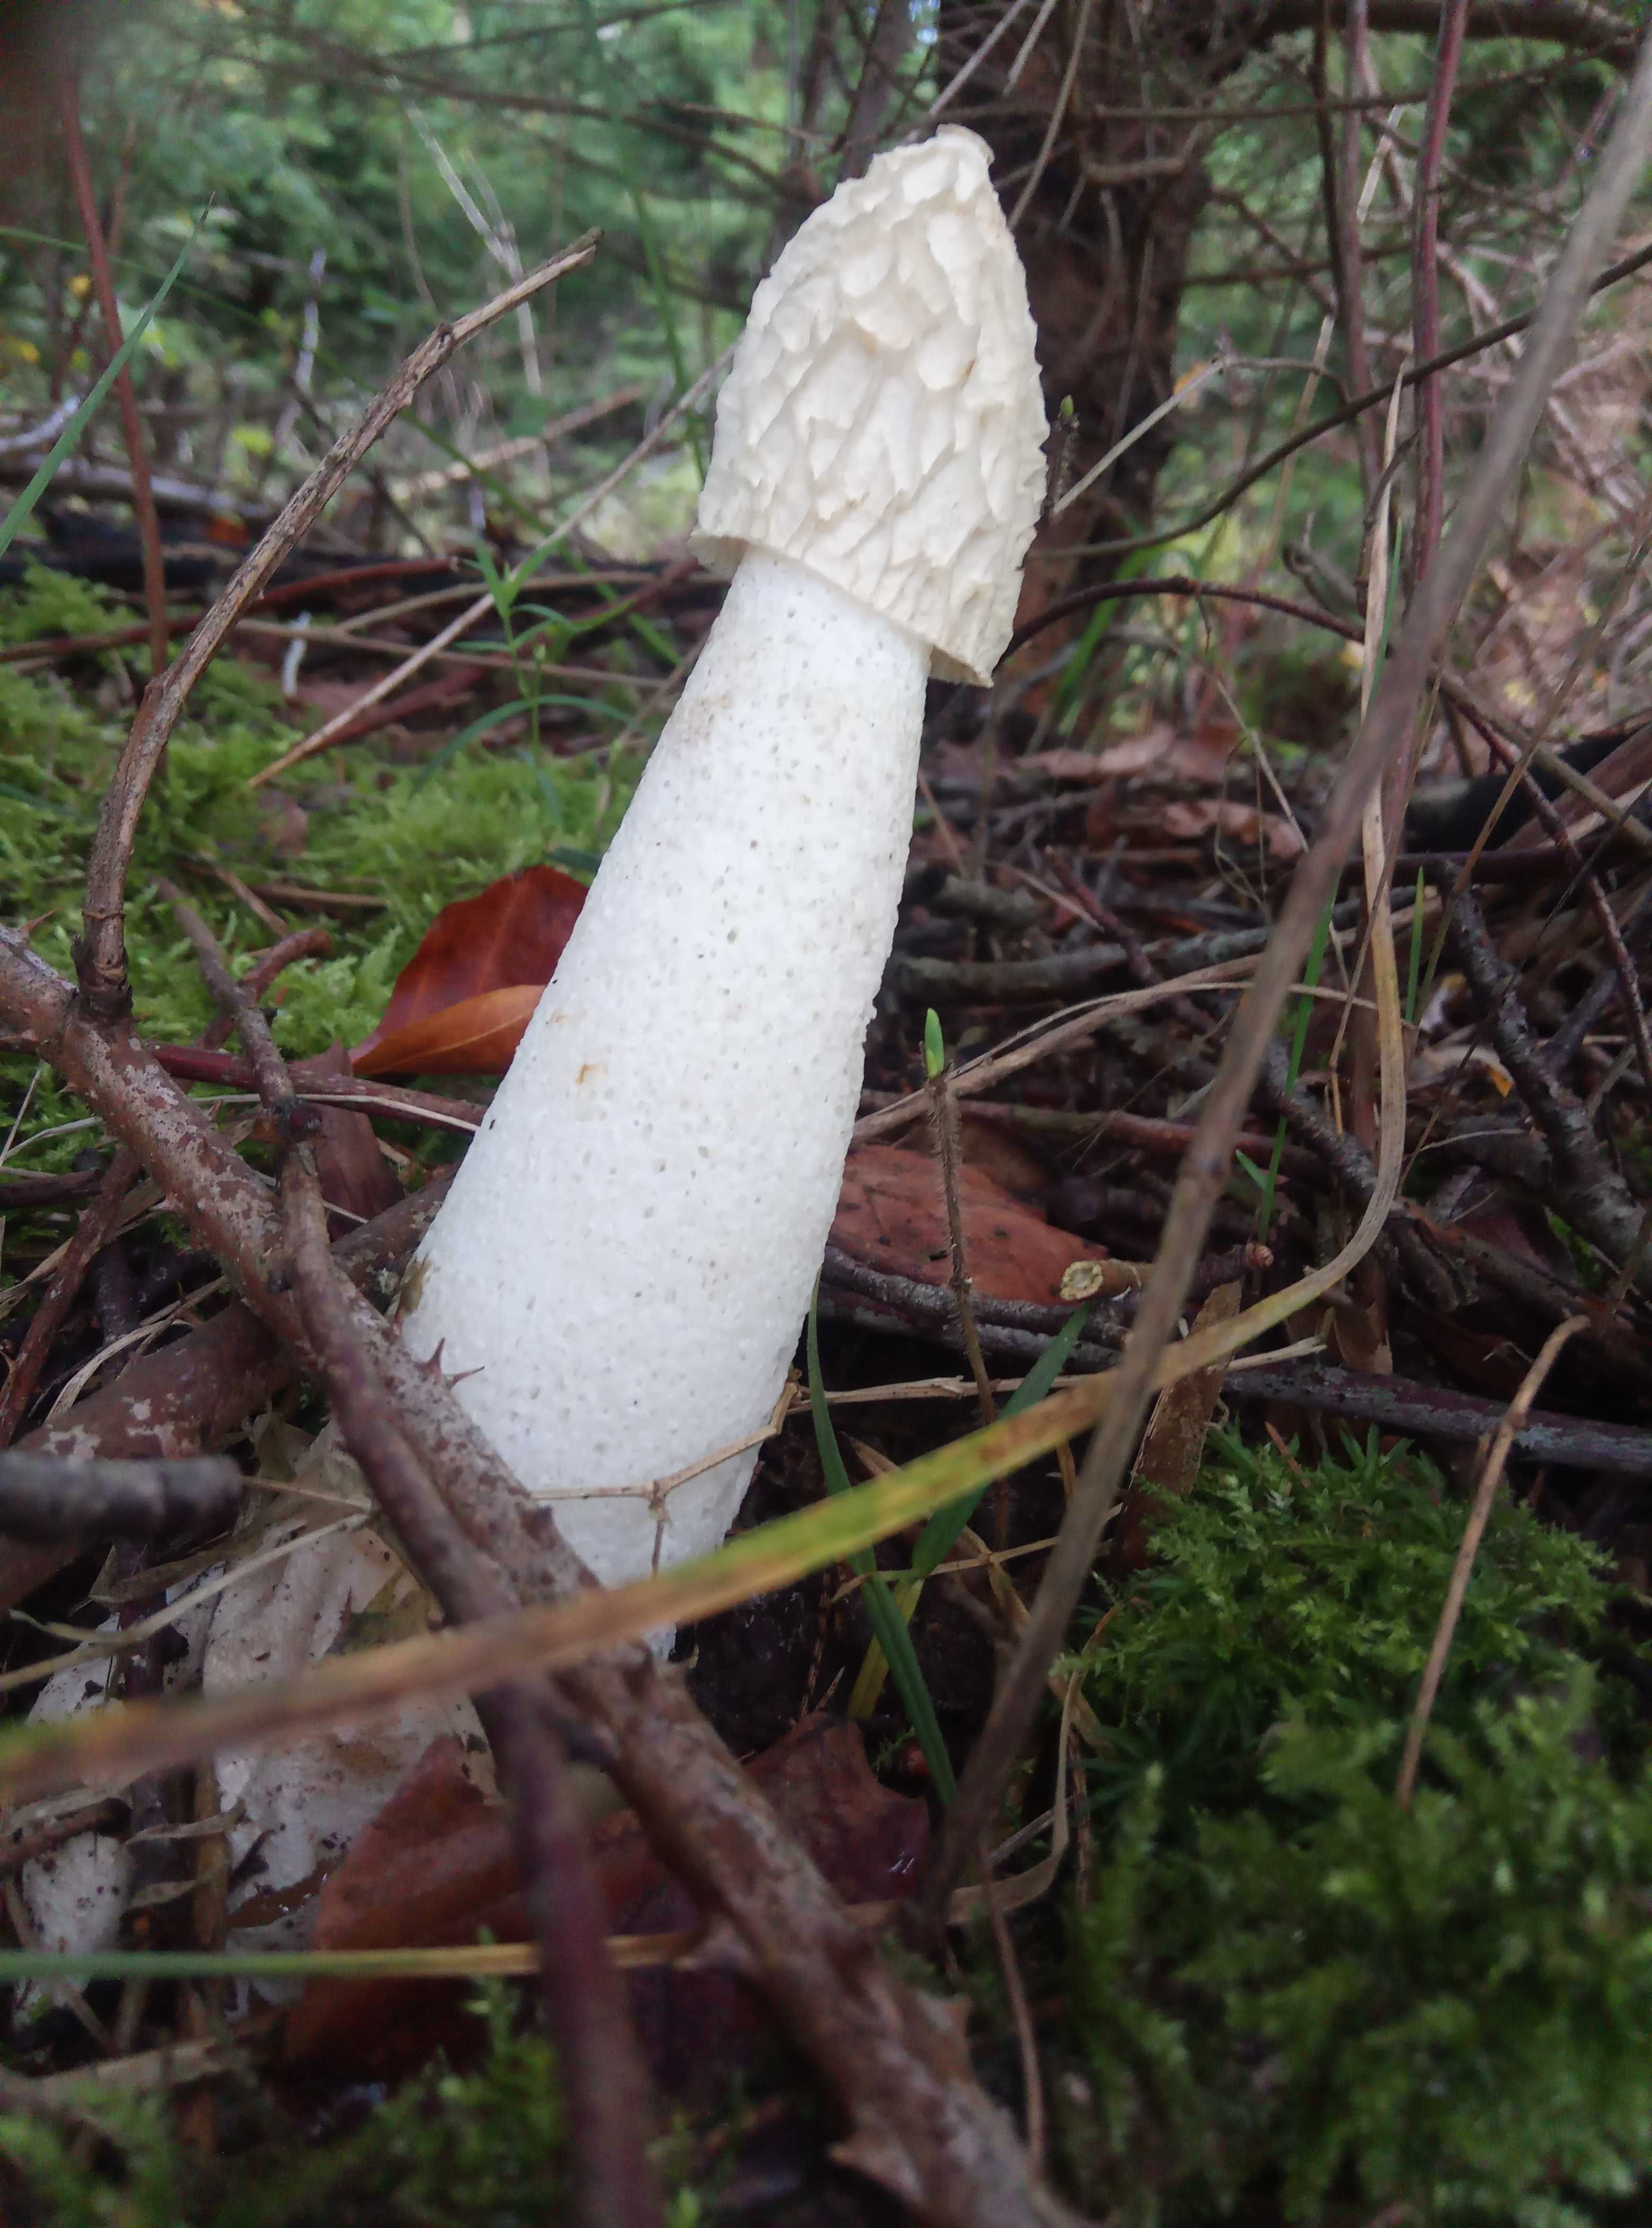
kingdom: Fungi
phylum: Basidiomycota
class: Agaricomycetes
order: Phallales
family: Phallaceae
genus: Phallus
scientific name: Phallus impudicus
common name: almindelig stinksvamp
